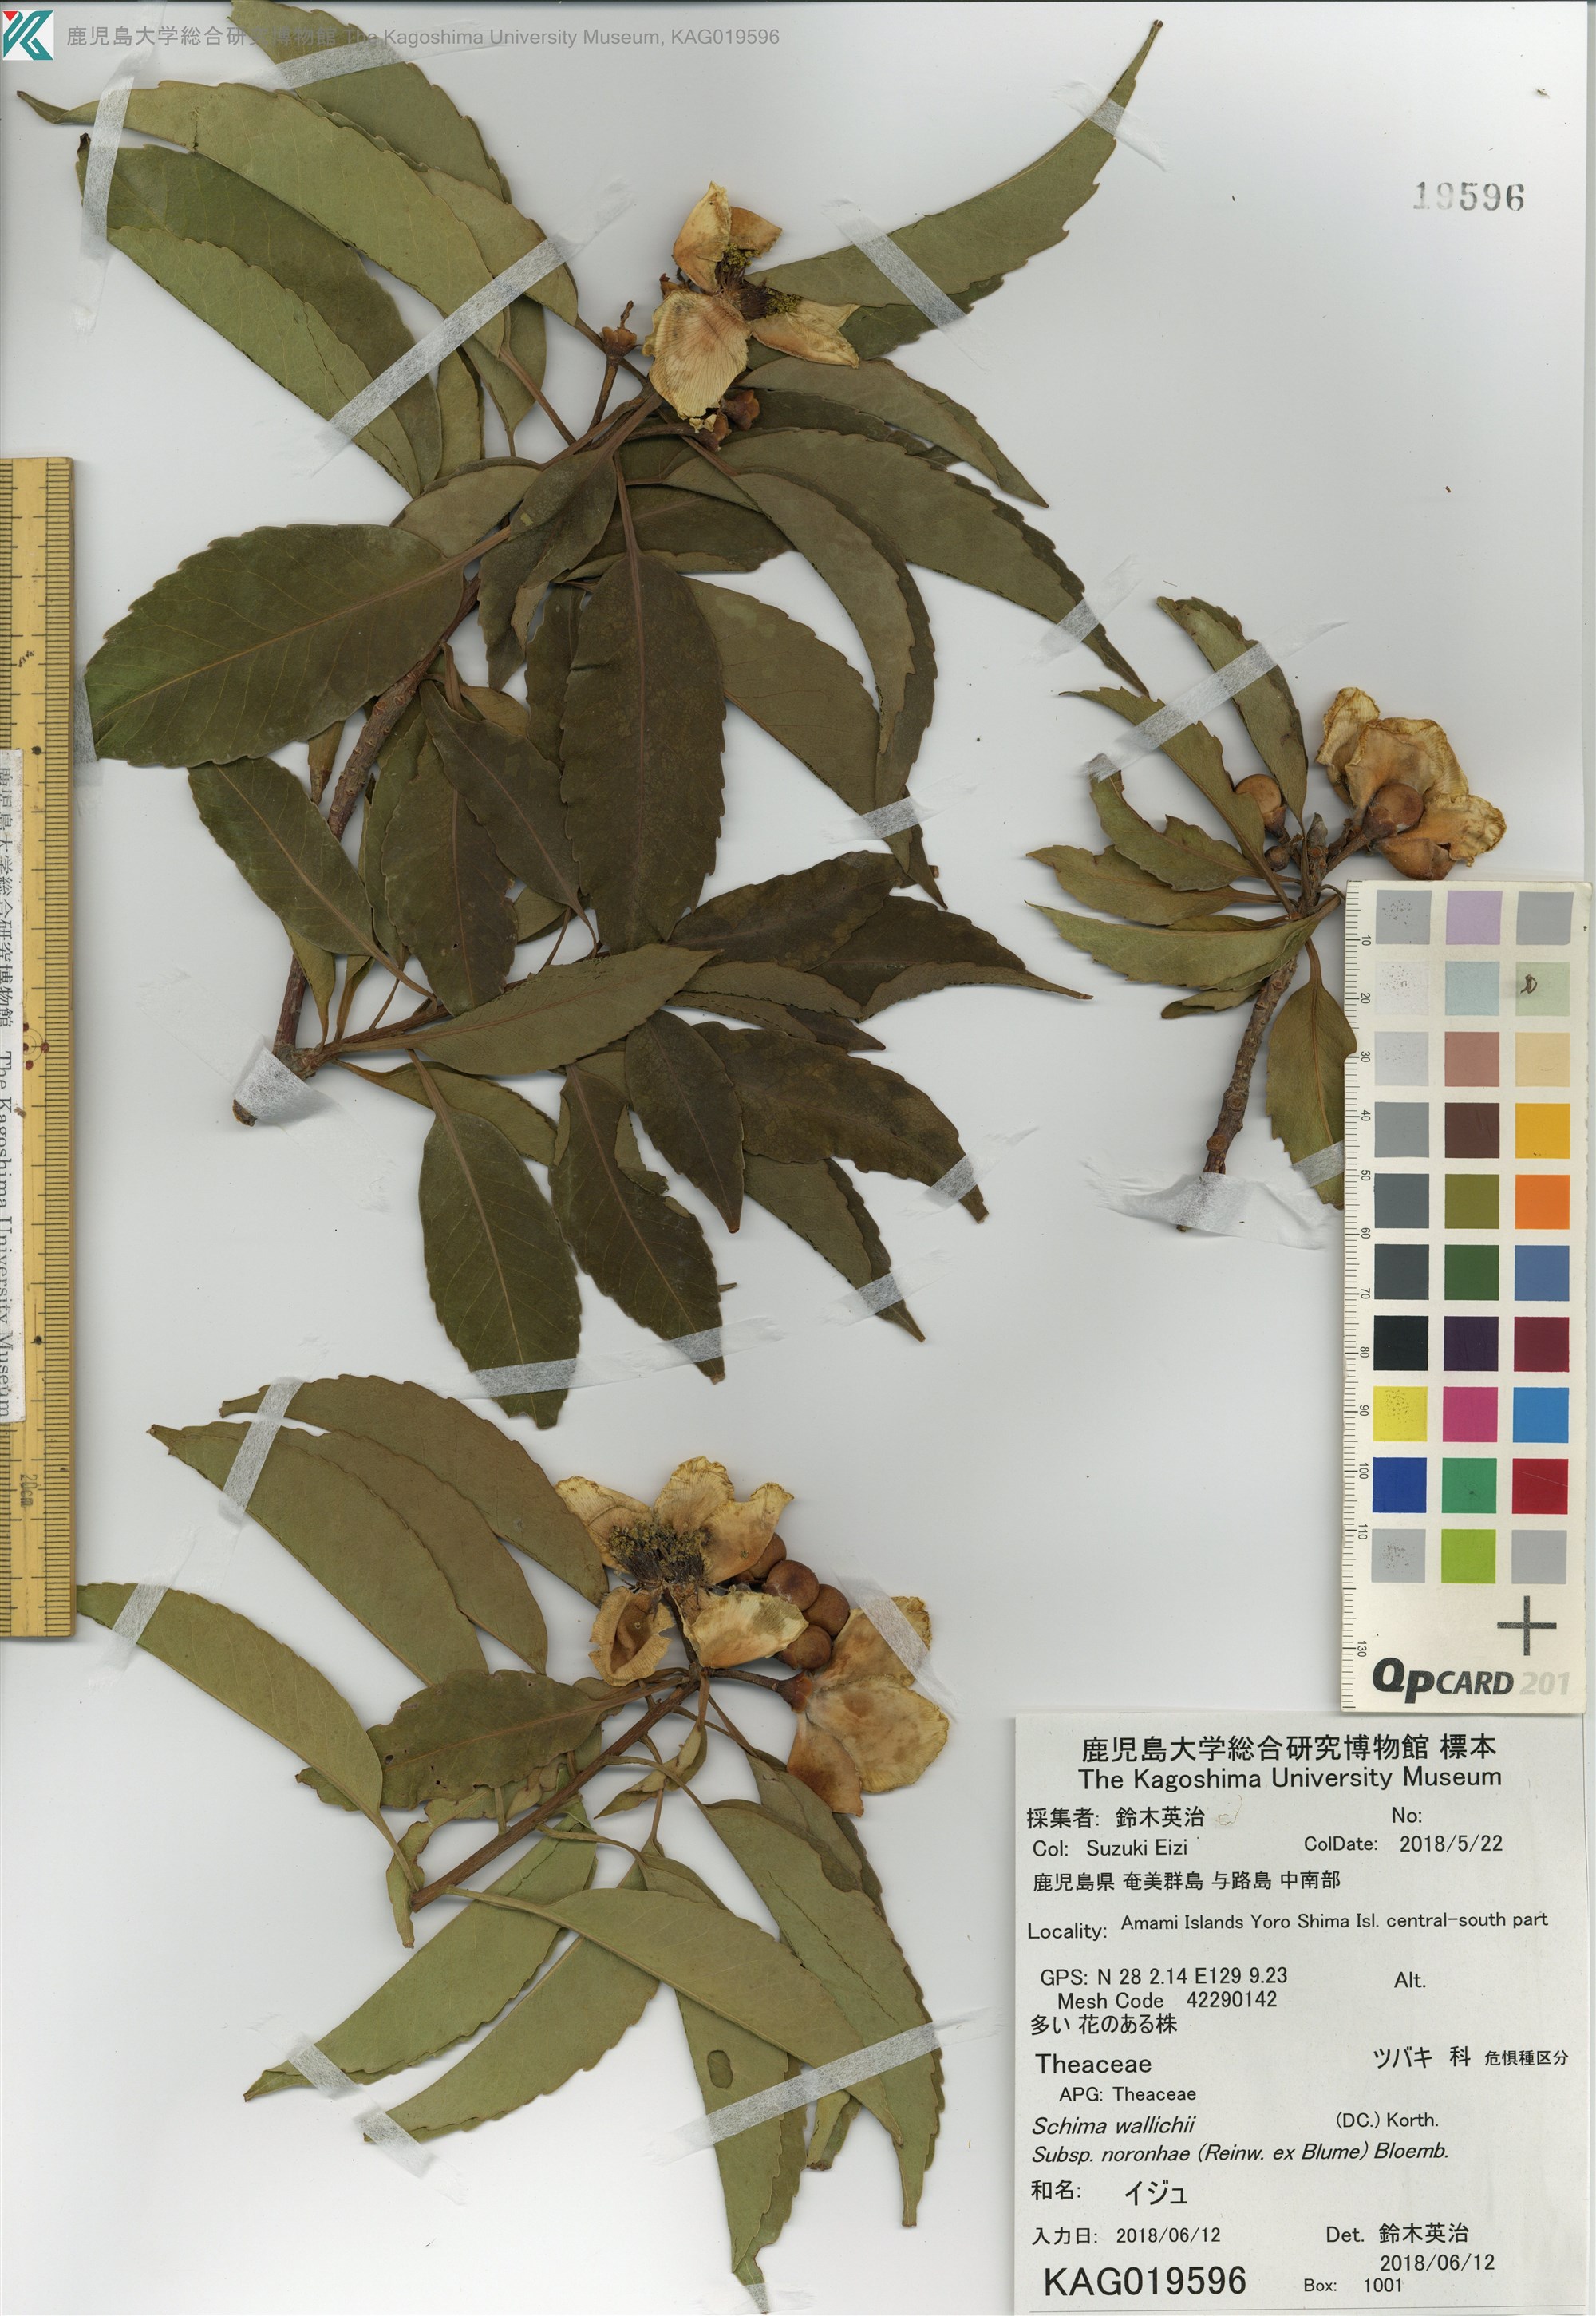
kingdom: Plantae
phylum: Tracheophyta
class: Magnoliopsida
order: Ericales
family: Theaceae
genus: Schima
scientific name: Schima noronhae
